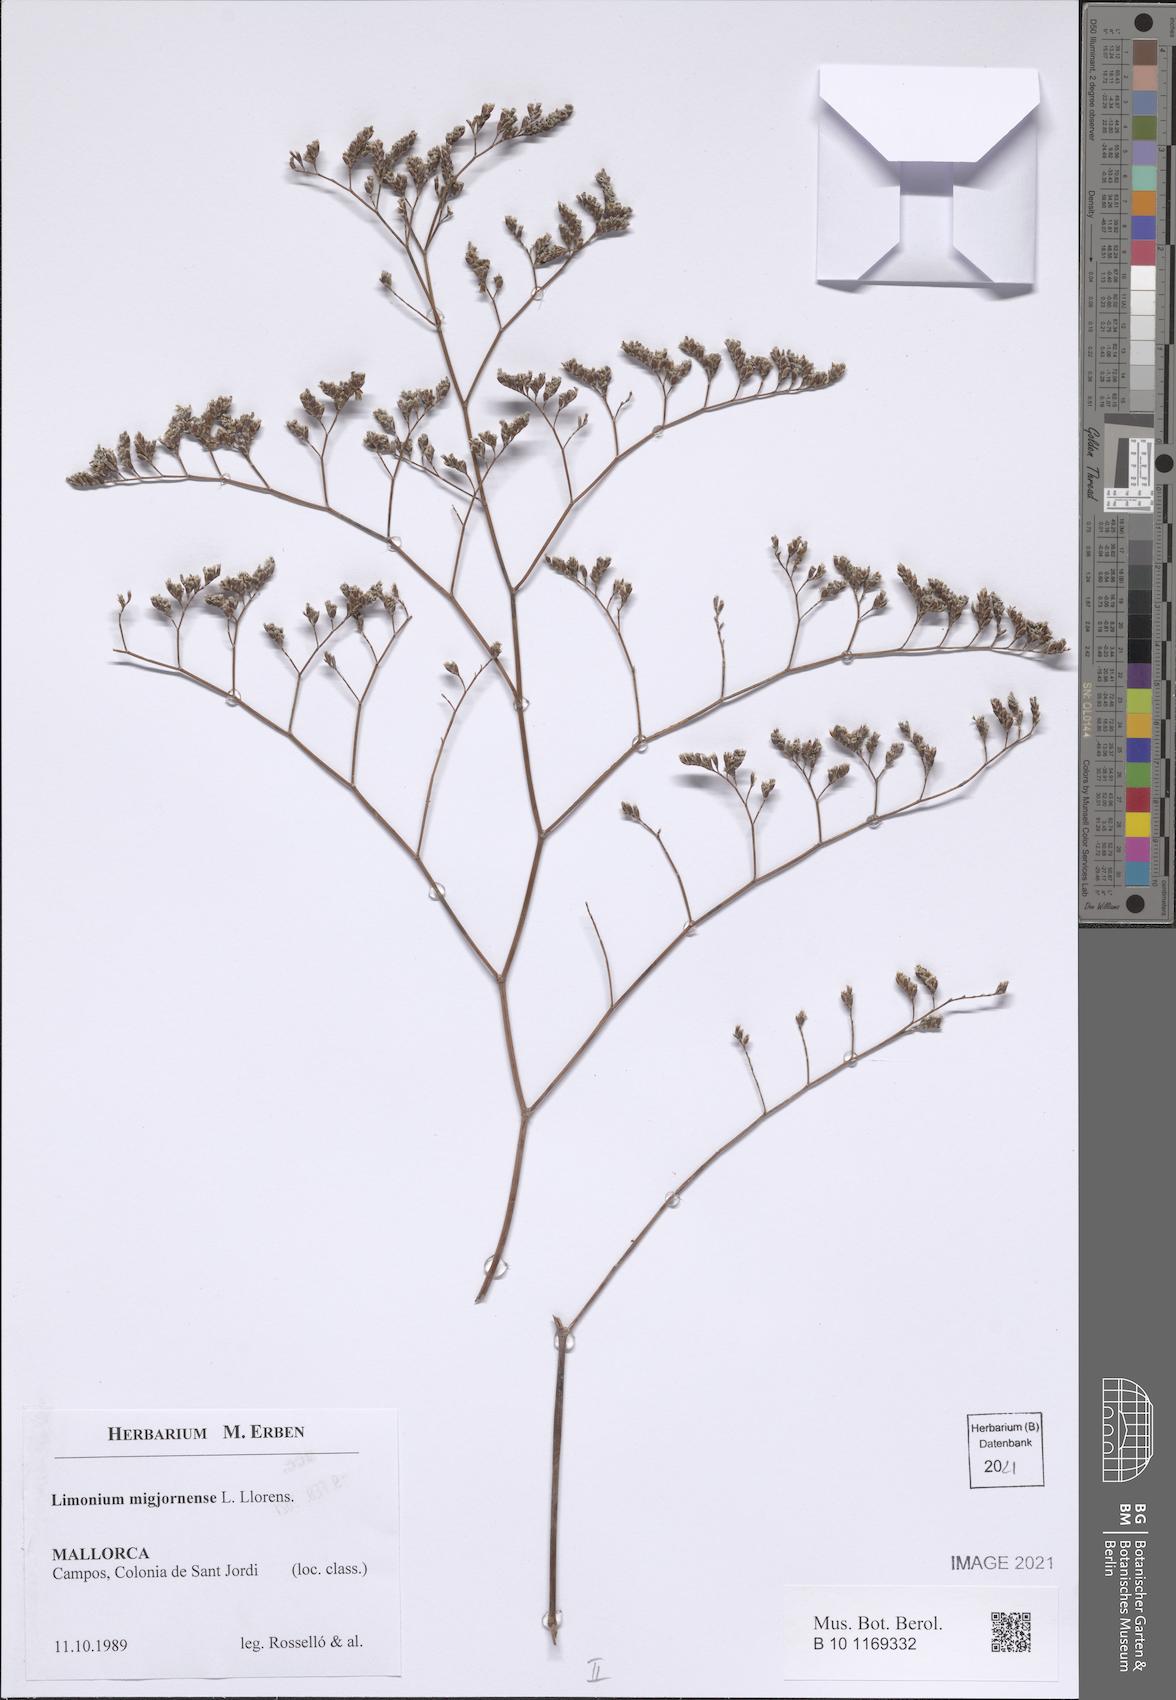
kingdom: Plantae
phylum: Tracheophyta
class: Magnoliopsida
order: Caryophyllales
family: Plumbaginaceae
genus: Limonium
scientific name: Limonium migjornense
